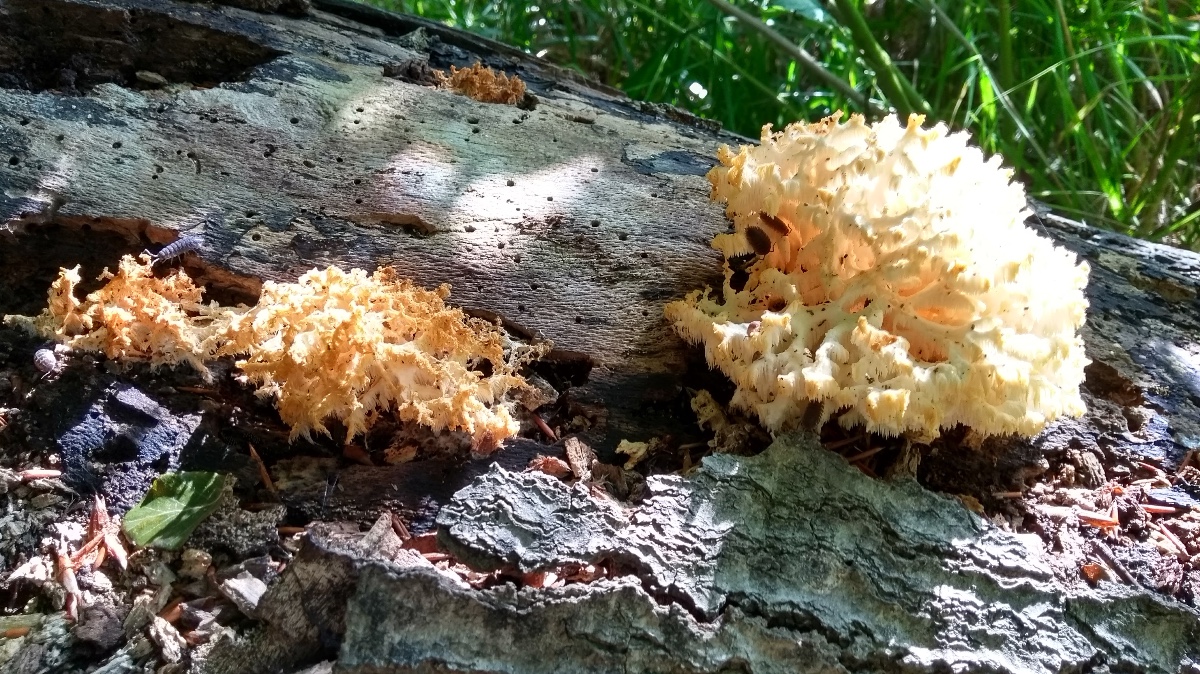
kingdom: Fungi
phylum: Basidiomycota
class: Agaricomycetes
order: Russulales
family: Hericiaceae
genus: Hericium
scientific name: Hericium coralloides
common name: koralpigsvamp
